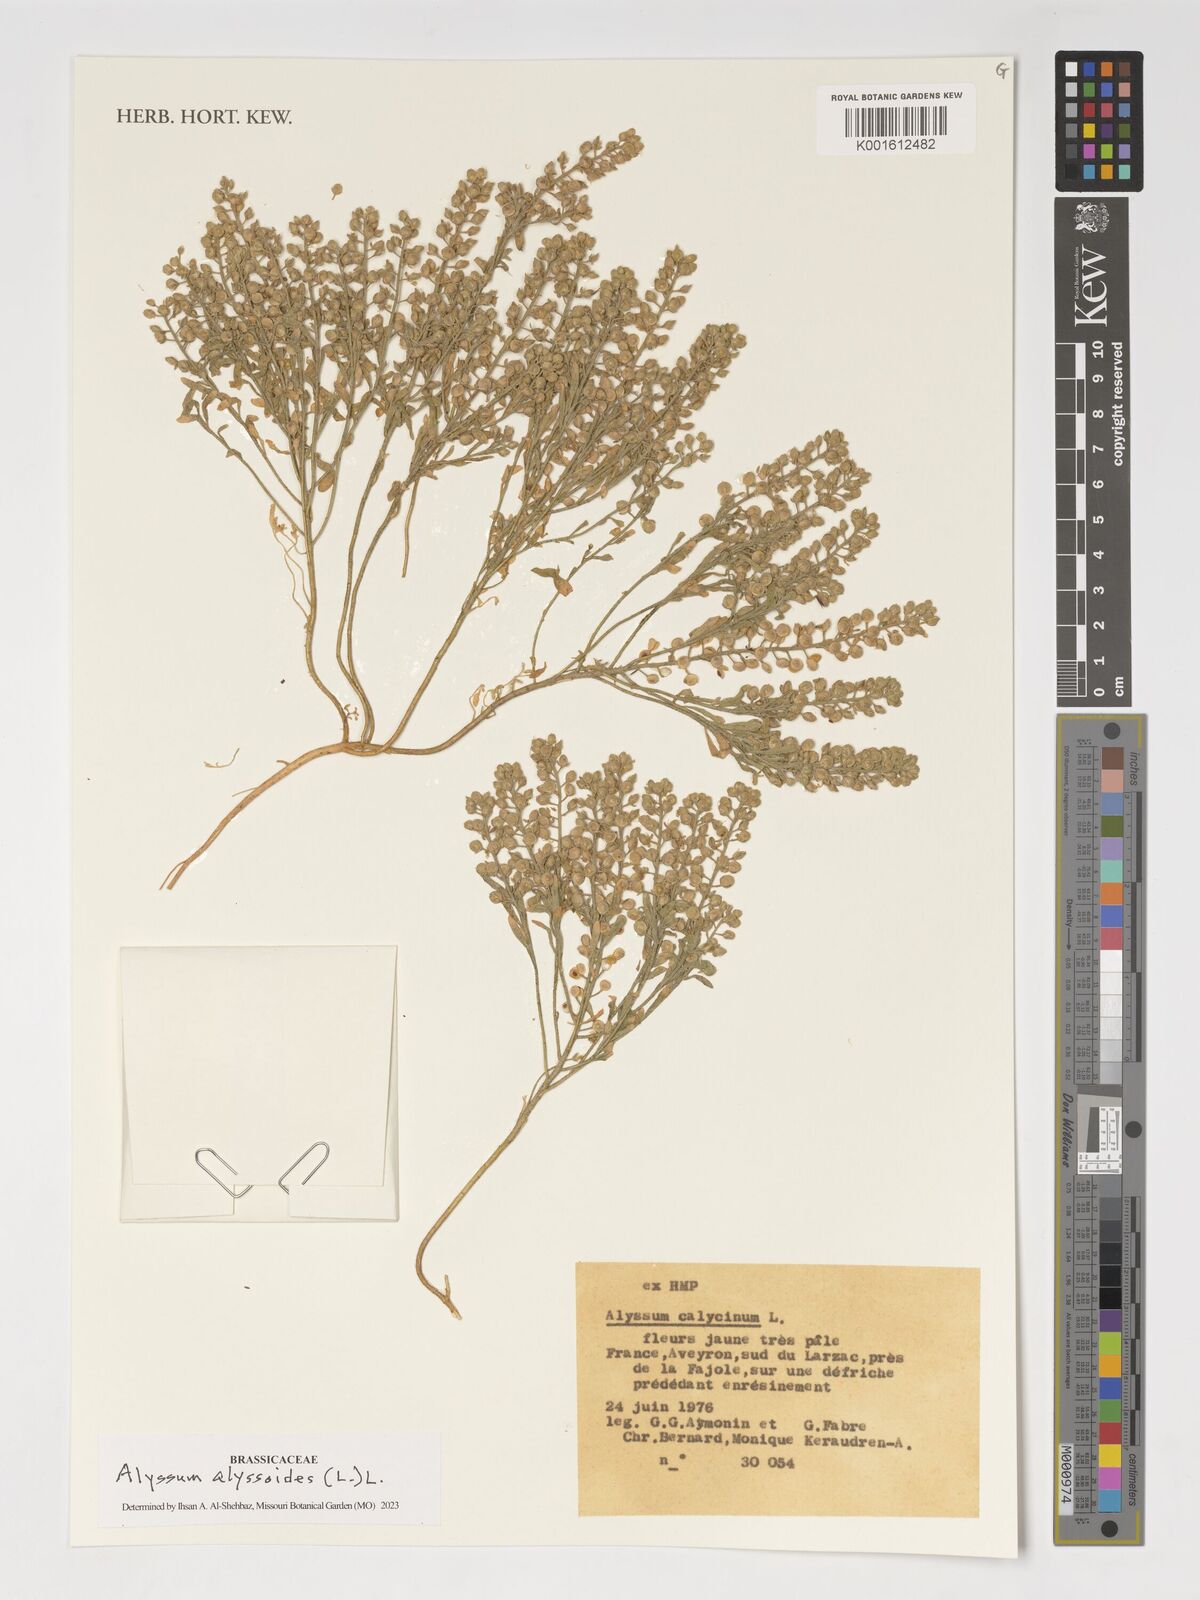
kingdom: Plantae
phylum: Tracheophyta
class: Magnoliopsida
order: Brassicales
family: Brassicaceae
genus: Alyssum
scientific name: Alyssum alyssoides
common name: Small alison
